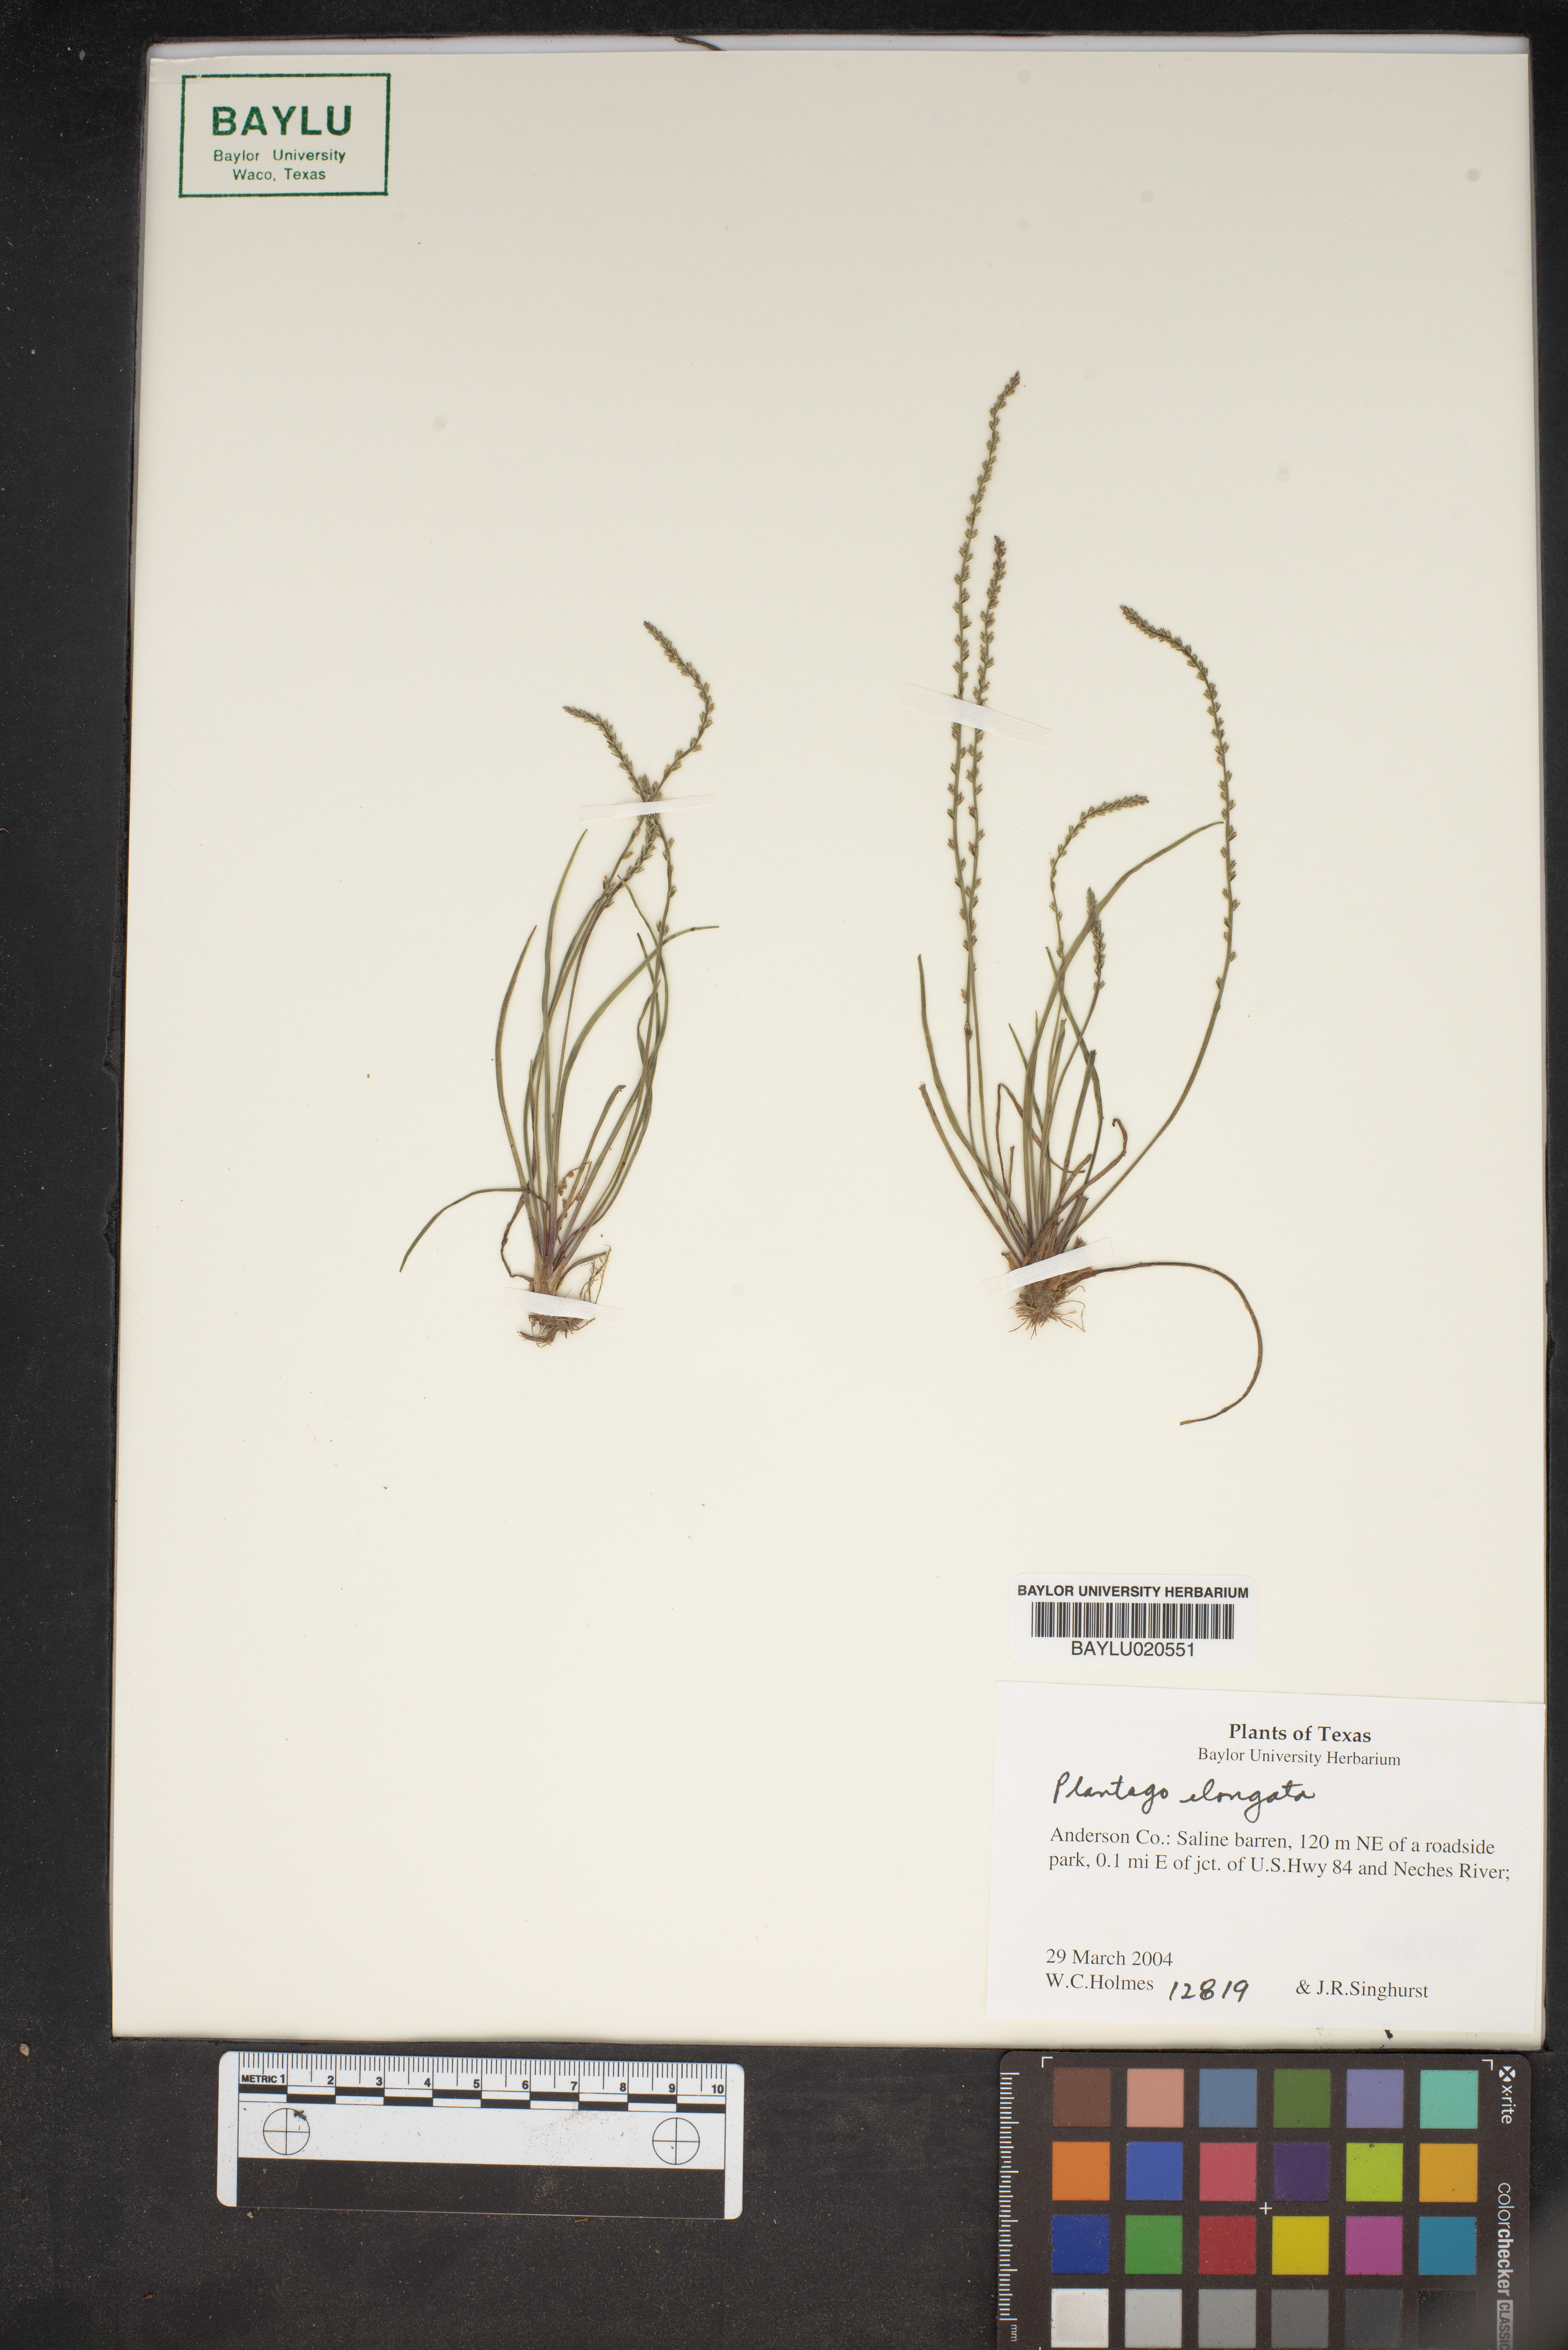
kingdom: Plantae
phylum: Tracheophyta
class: Magnoliopsida
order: Lamiales
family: Plantaginaceae
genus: Plantago
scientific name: Plantago elongata
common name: Linear-leaved plantain
